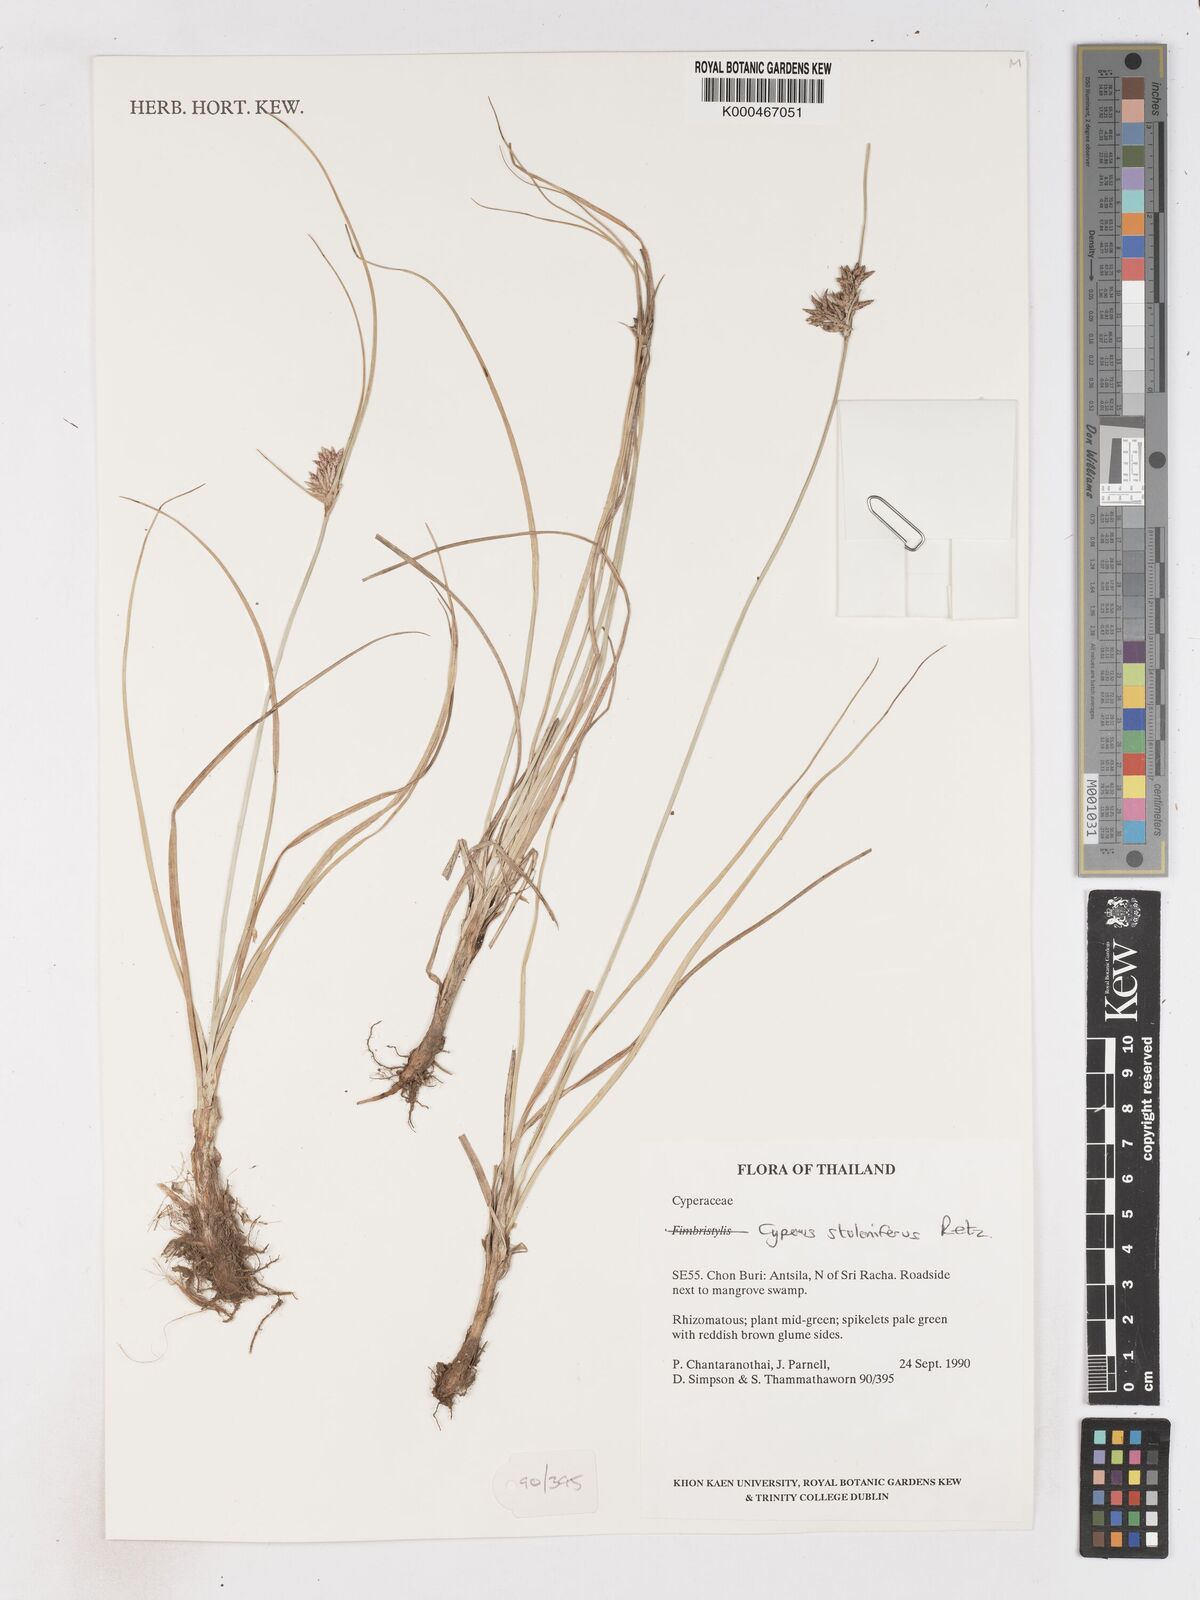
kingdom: Plantae
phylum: Tracheophyta
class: Liliopsida
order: Poales
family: Cyperaceae
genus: Cyperus
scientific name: Cyperus
